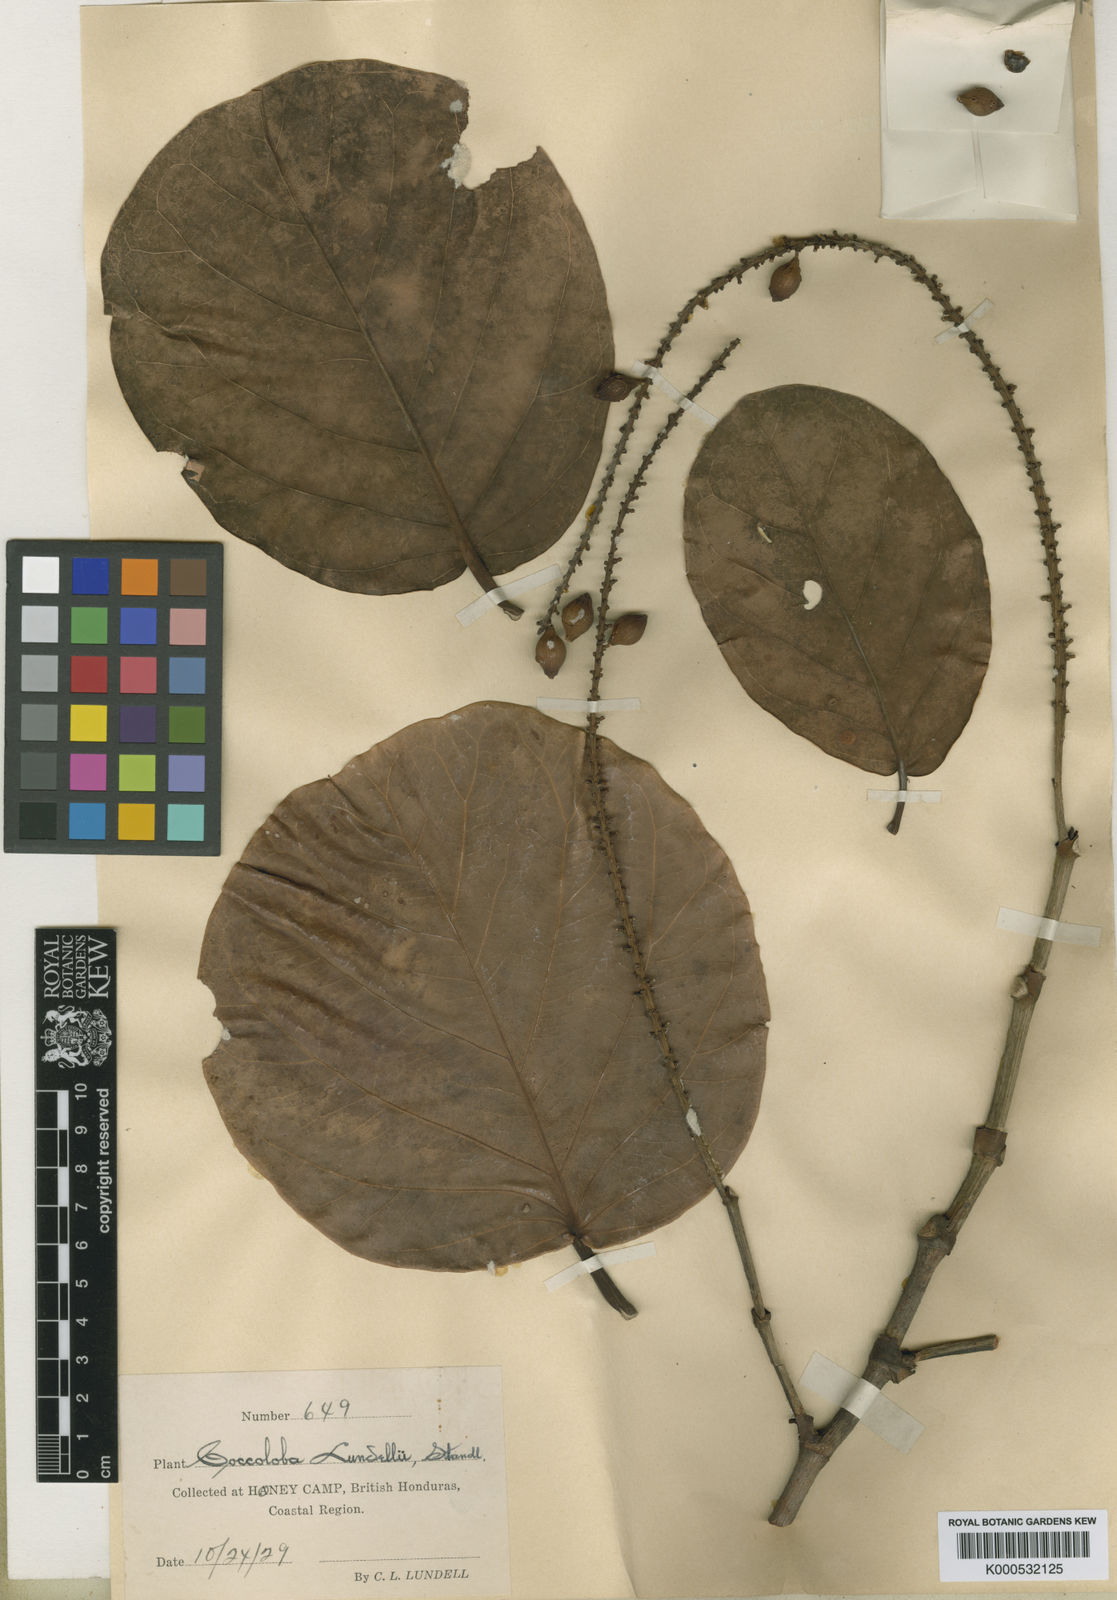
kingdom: Plantae
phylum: Tracheophyta
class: Magnoliopsida
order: Caryophyllales
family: Polygonaceae
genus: Coccoloba
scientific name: Coccoloba lundellii
